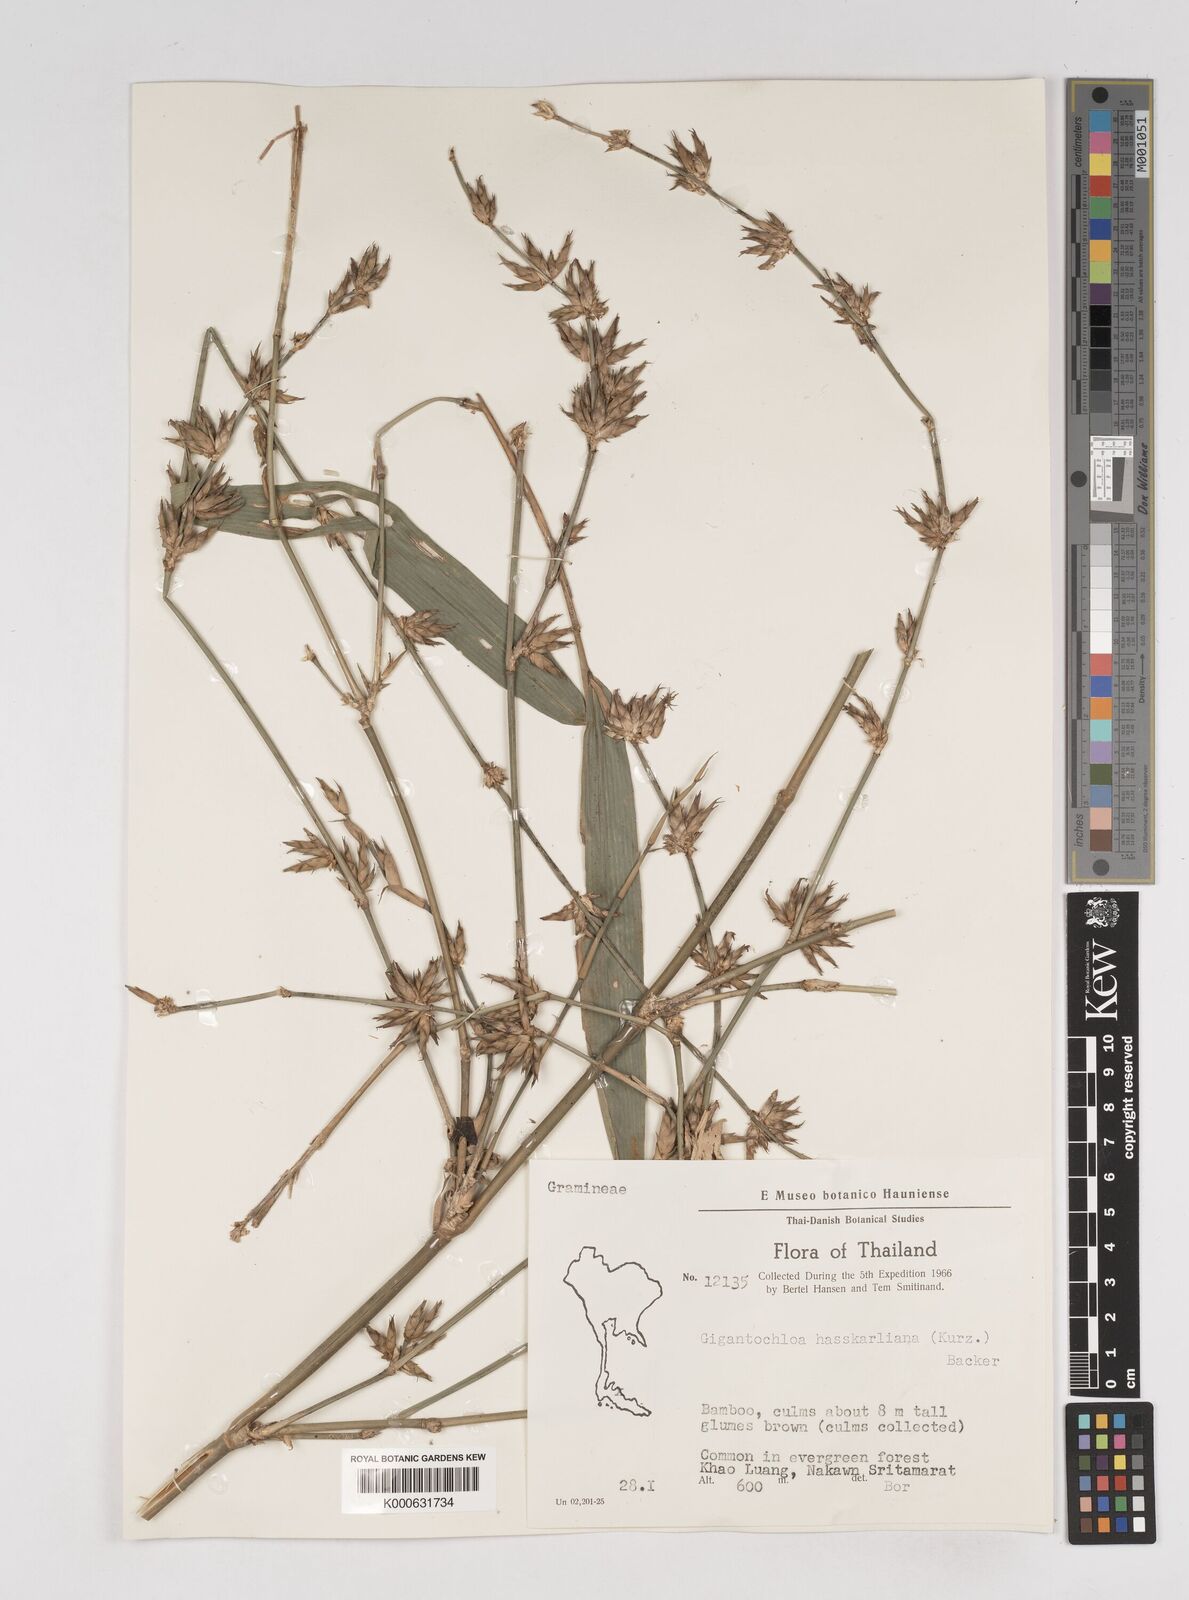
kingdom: Plantae
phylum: Tracheophyta
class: Liliopsida
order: Poales
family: Poaceae
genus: Gigantochloa
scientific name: Gigantochloa
